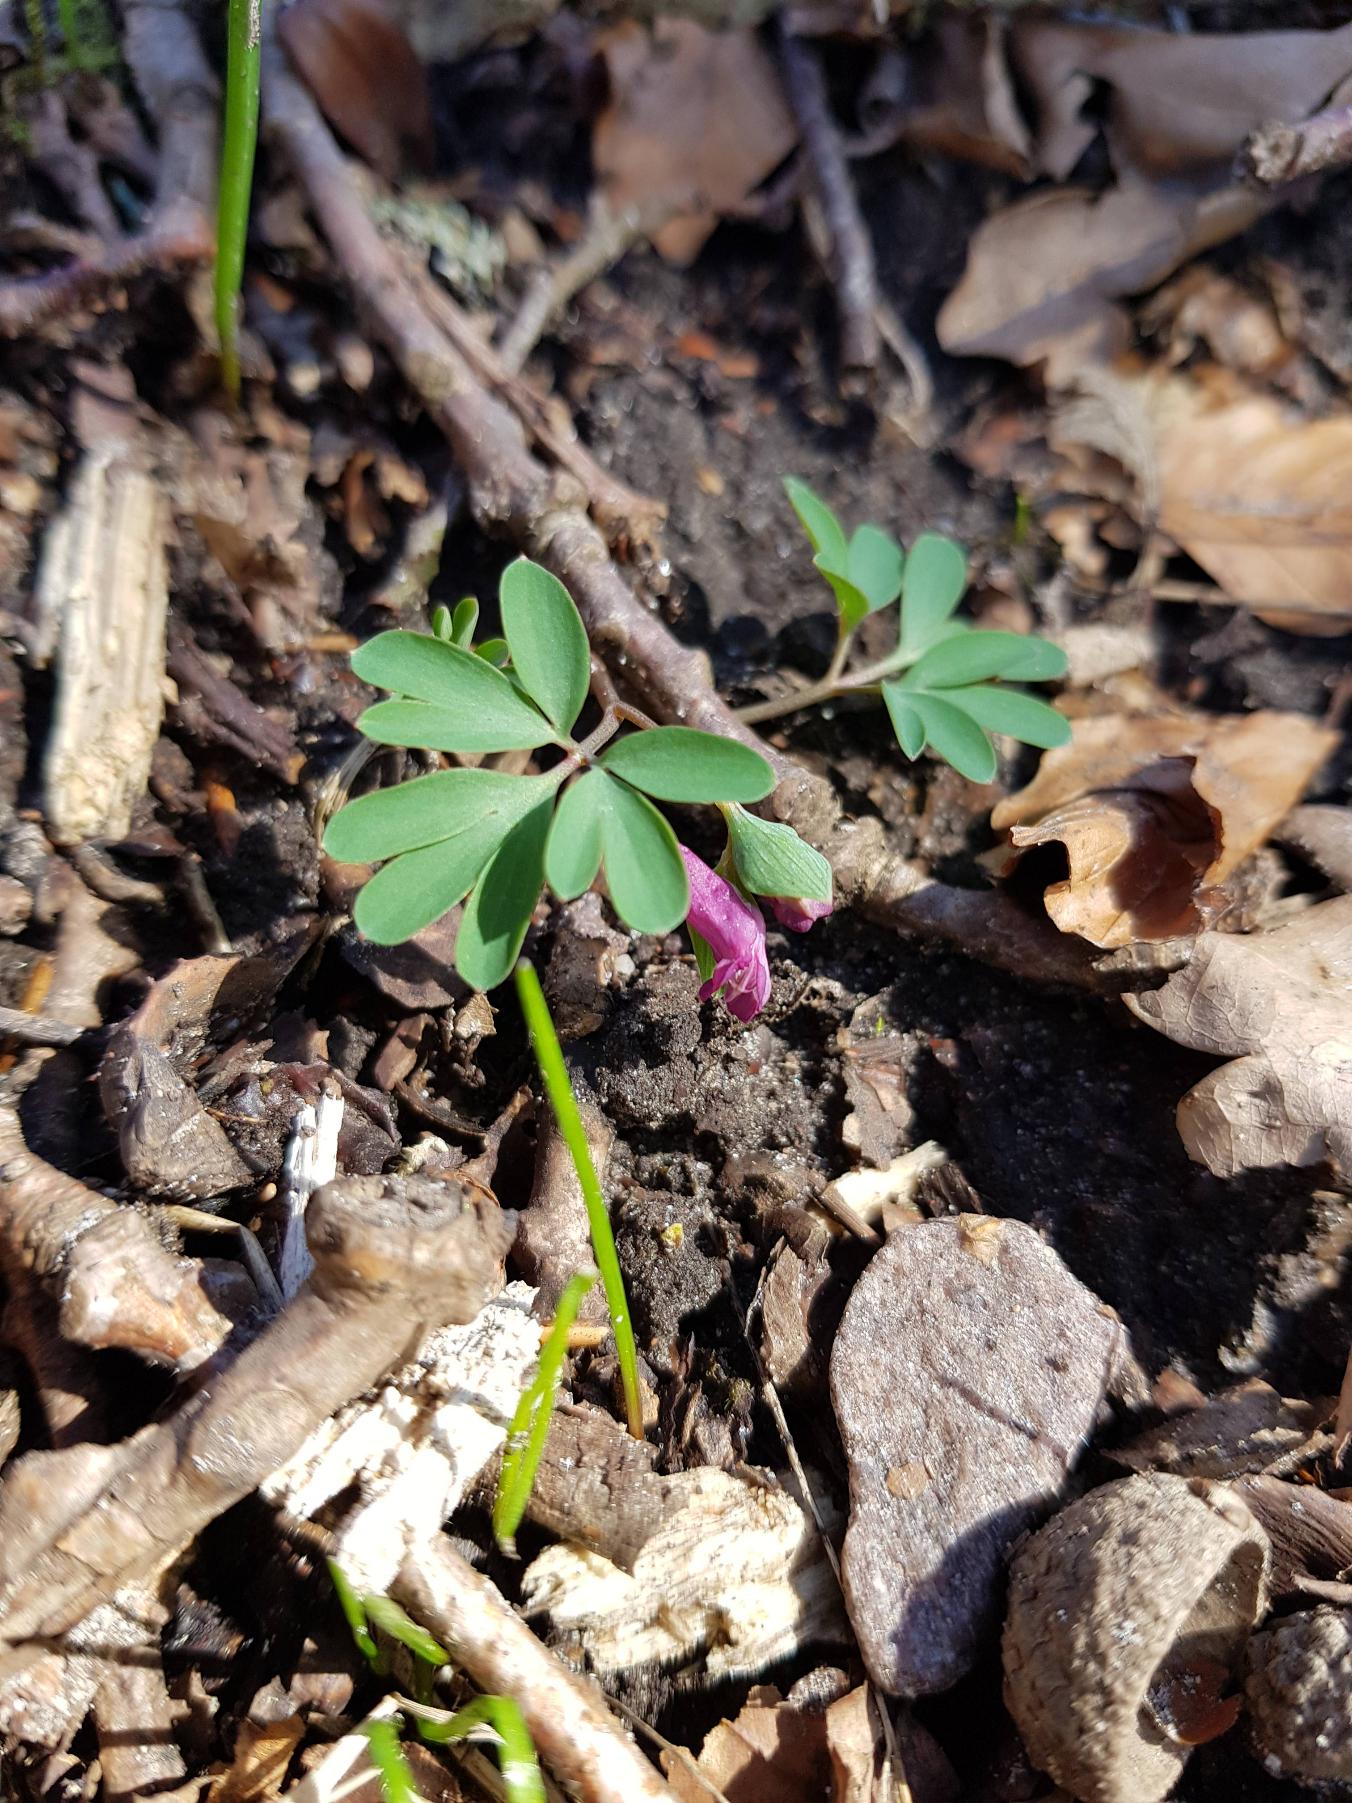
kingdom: Plantae
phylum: Tracheophyta
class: Magnoliopsida
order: Ranunculales
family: Papaveraceae
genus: Corydalis
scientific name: Corydalis intermedia
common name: Liden lærkespore
